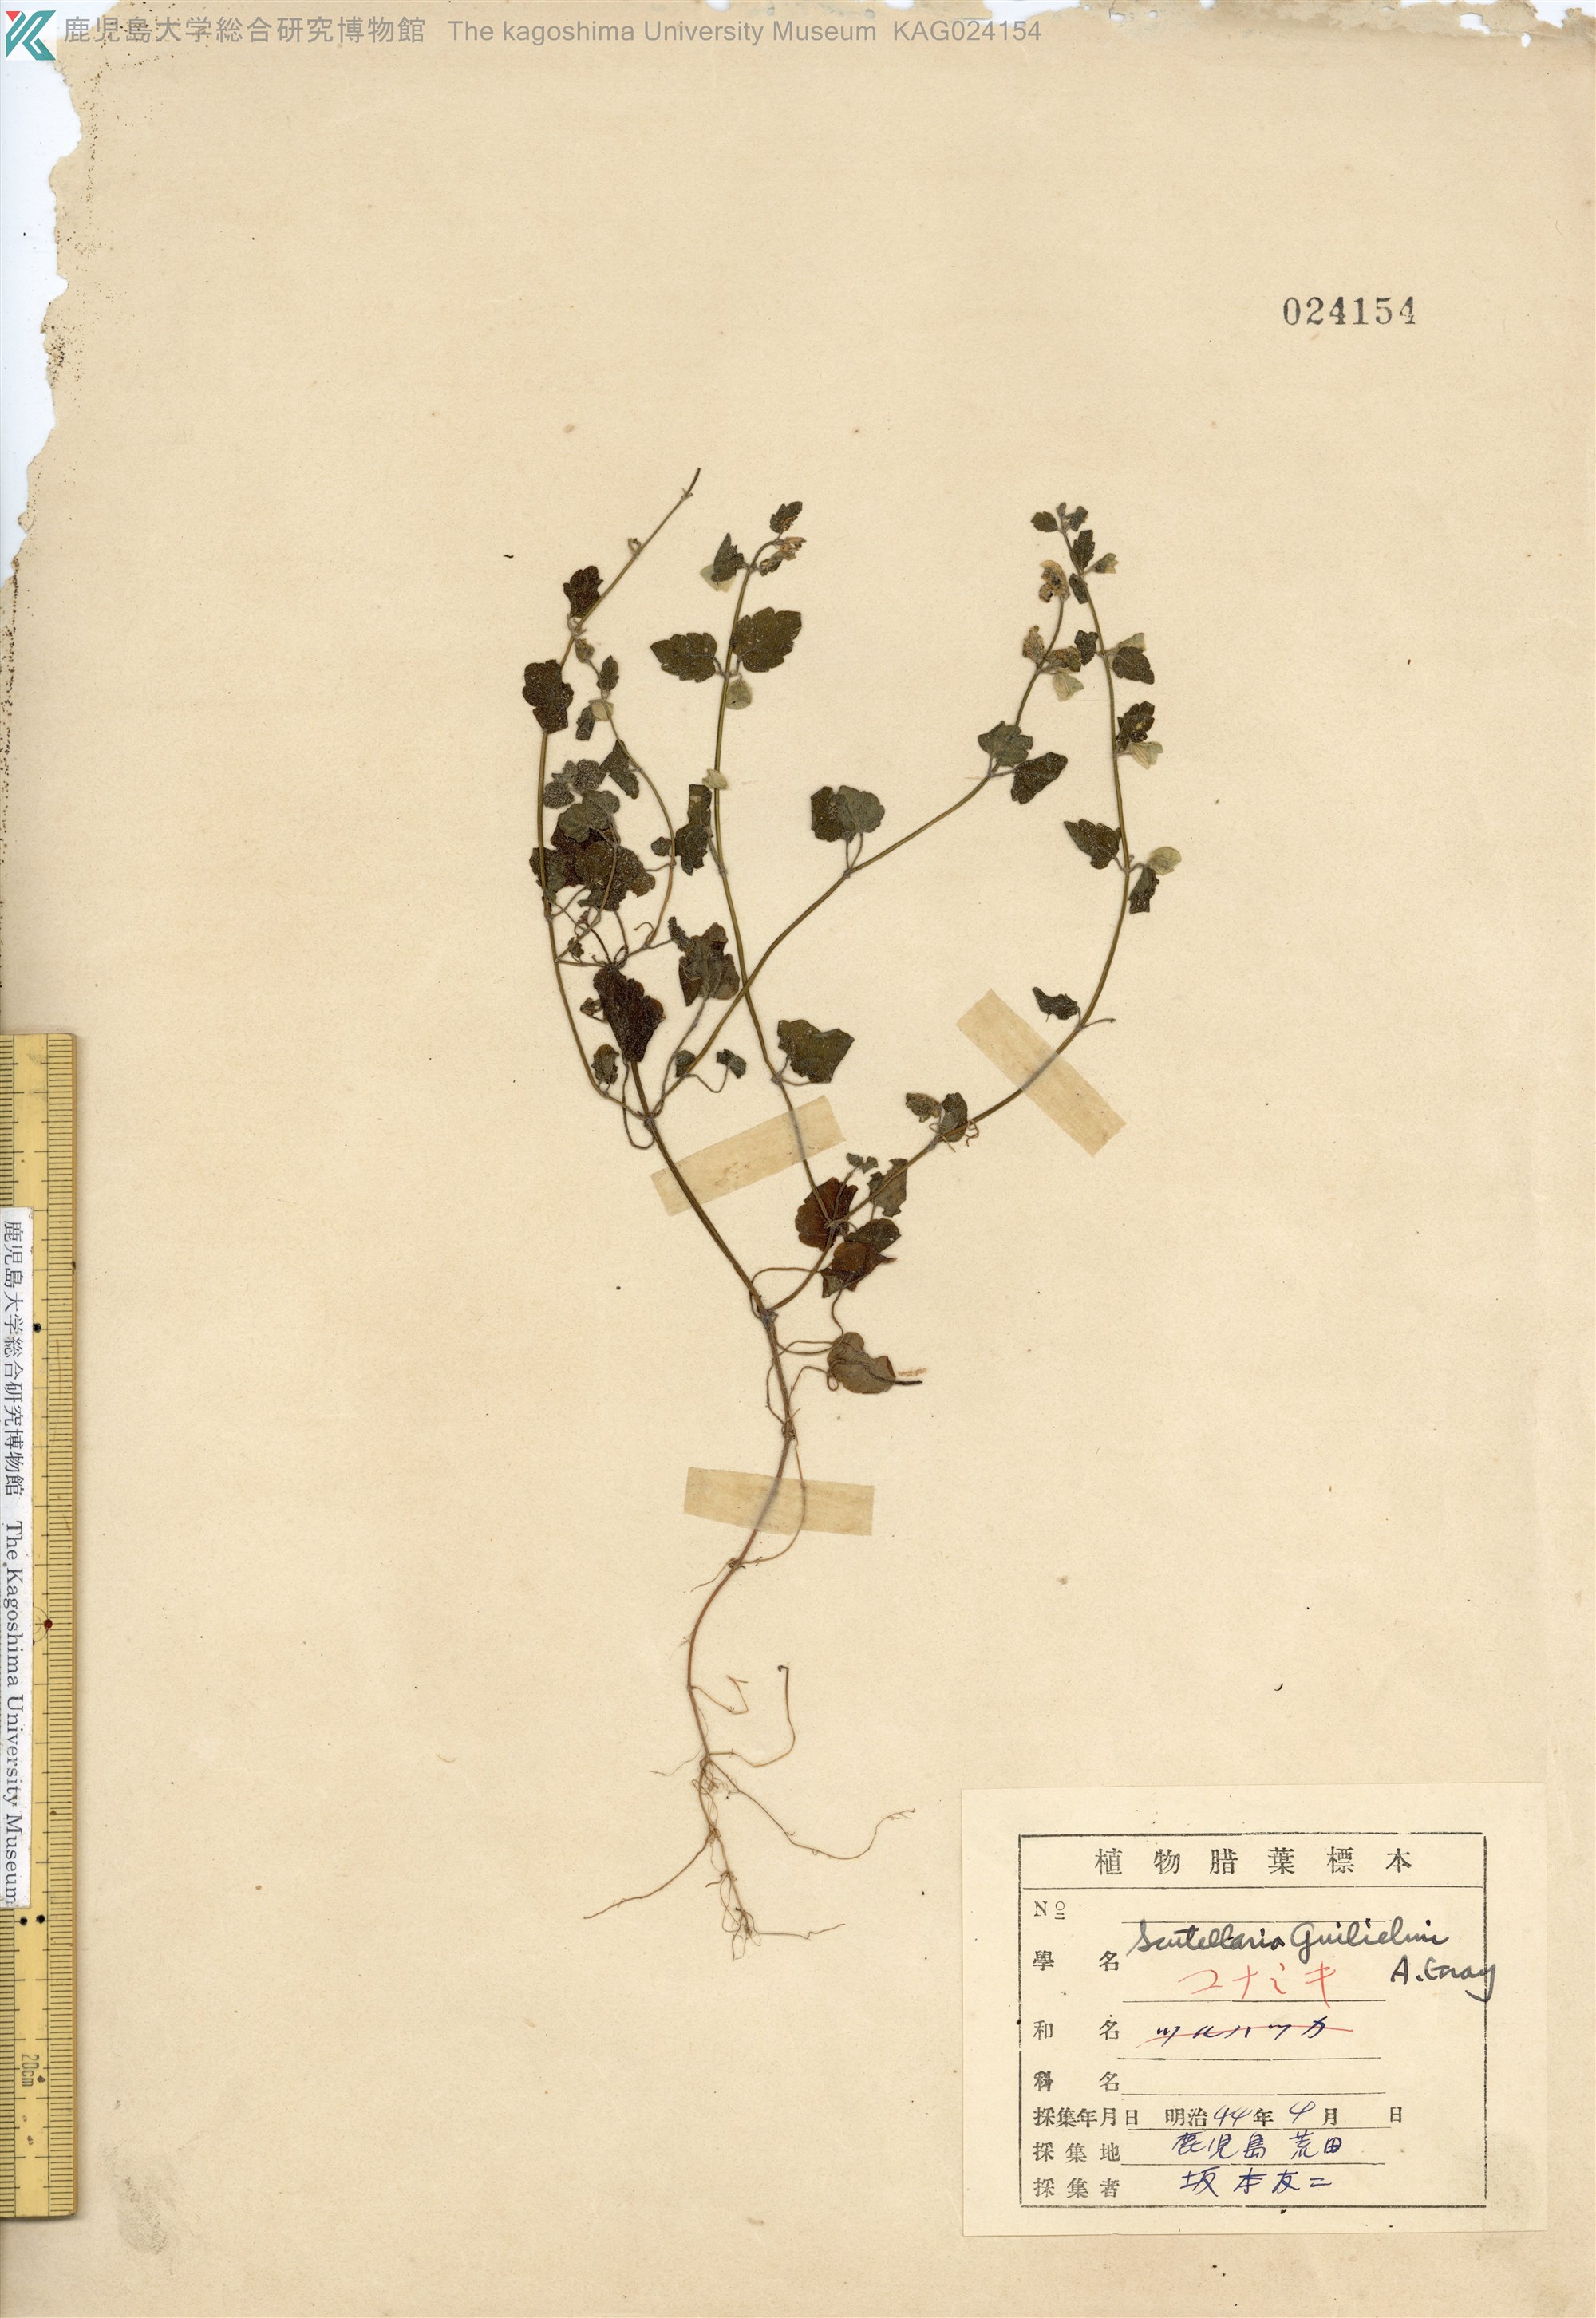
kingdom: Plantae
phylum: Tracheophyta
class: Magnoliopsida
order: Lamiales
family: Lamiaceae
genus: Scutellaria
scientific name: Scutellaria guilielmi
